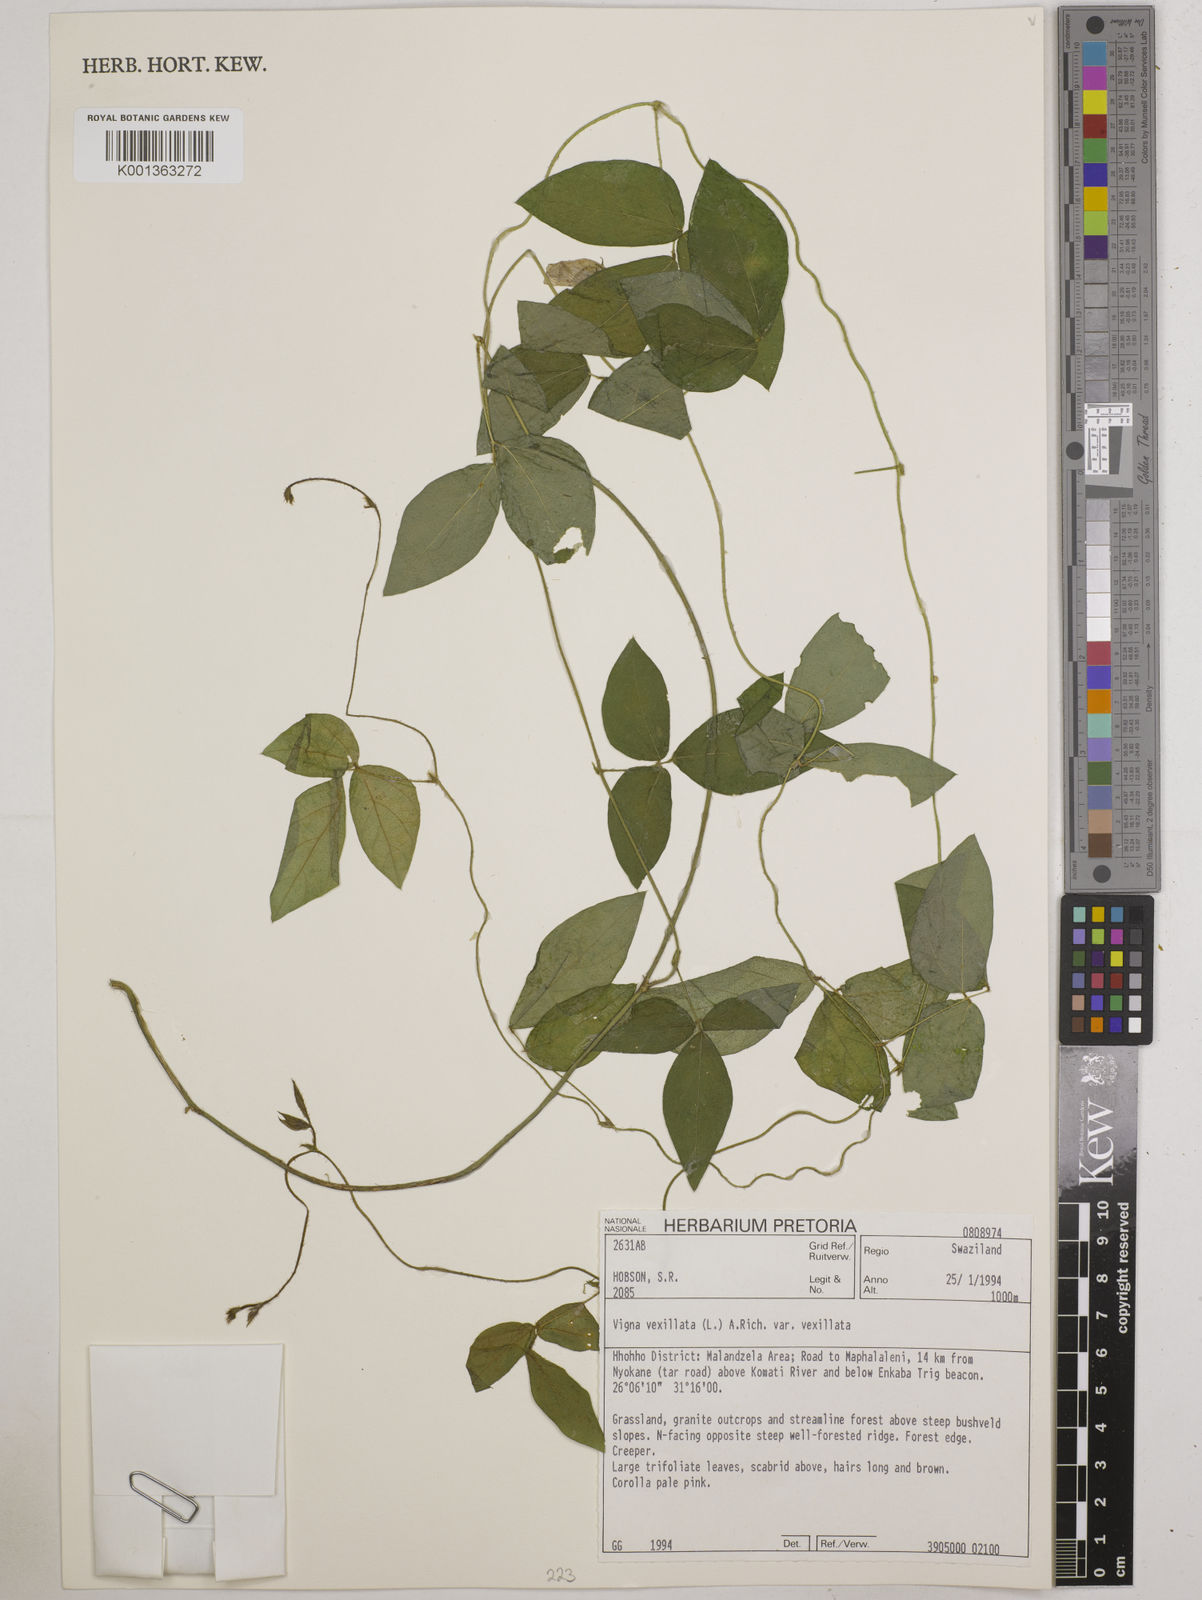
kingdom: Plantae
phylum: Tracheophyta
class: Magnoliopsida
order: Fabales
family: Fabaceae
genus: Vigna
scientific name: Vigna
